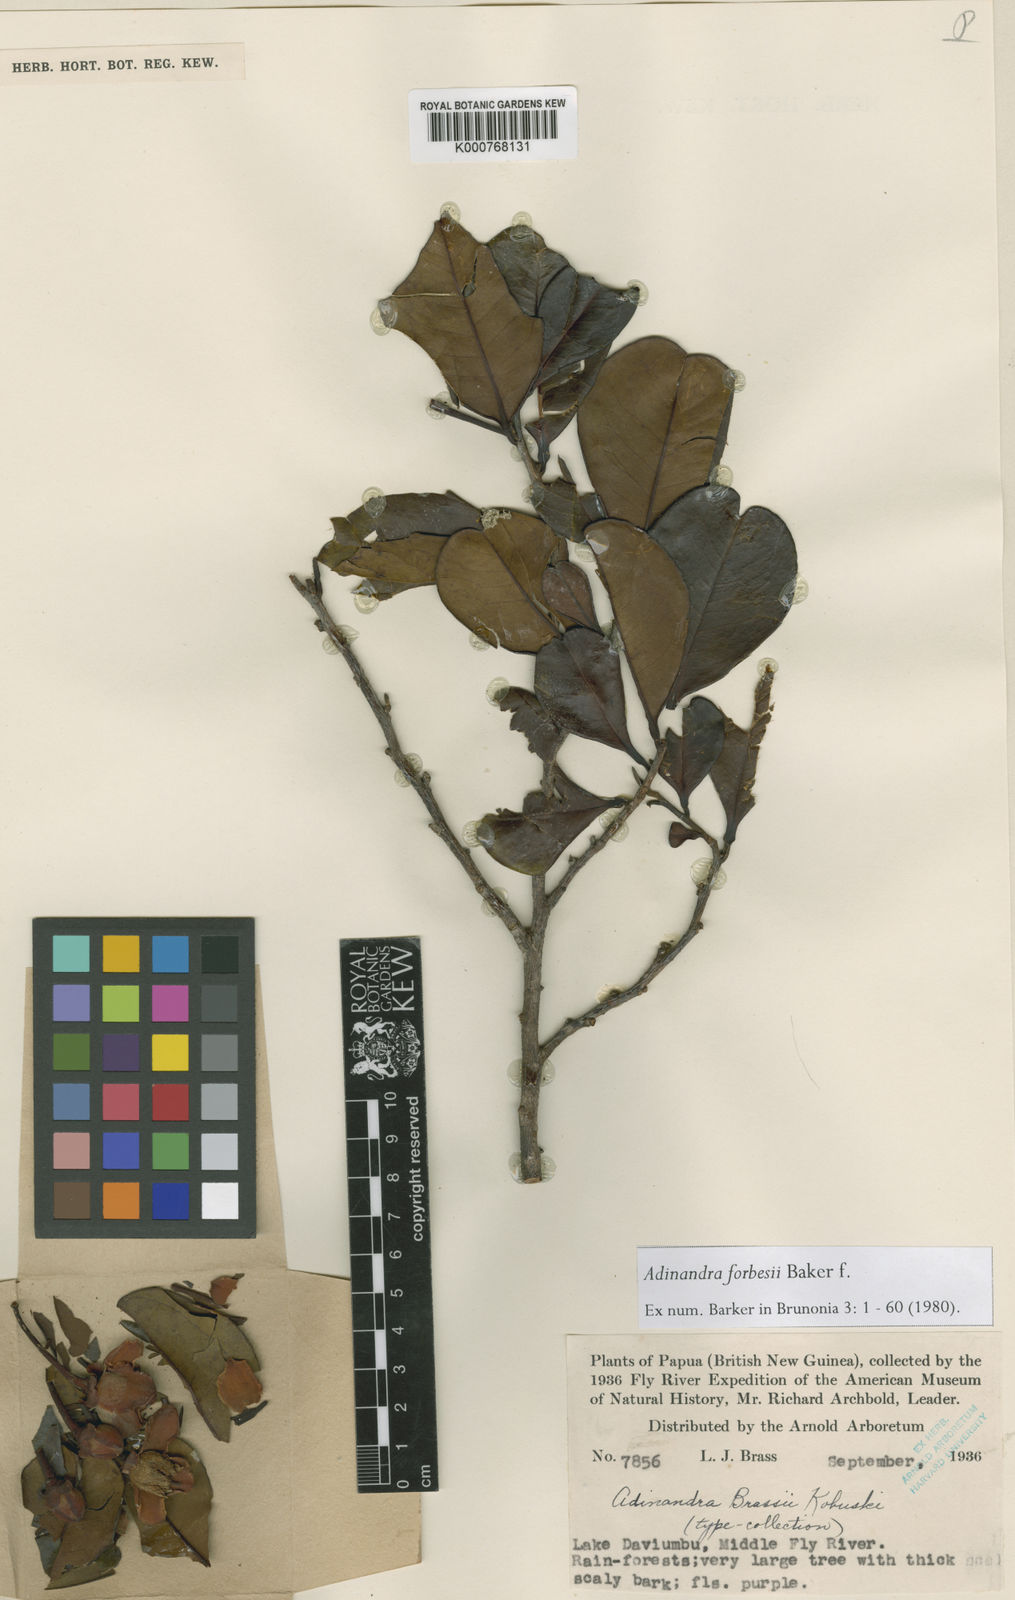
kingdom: Plantae
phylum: Tracheophyta
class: Magnoliopsida
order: Ericales
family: Pentaphylacaceae
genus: Adinandra
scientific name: Adinandra forbesii
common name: Oriomo redwood
